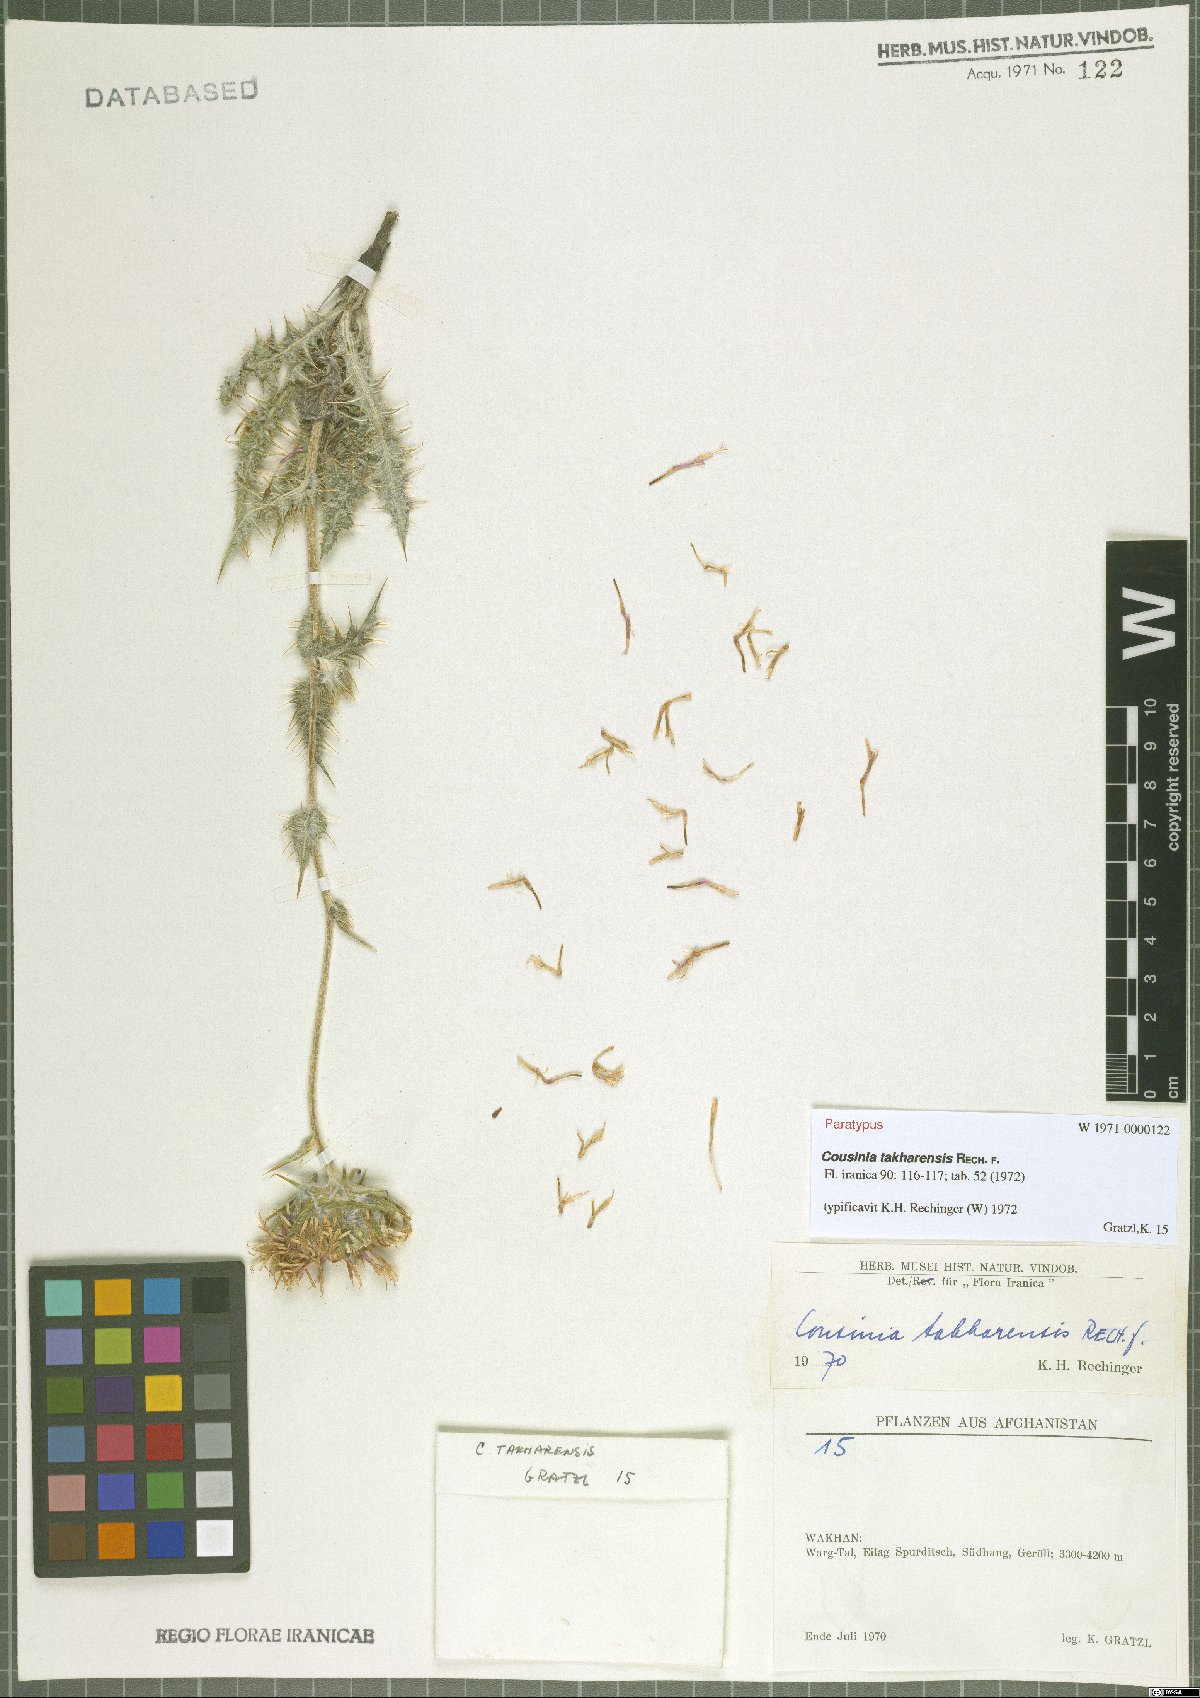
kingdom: Plantae
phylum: Tracheophyta
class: Magnoliopsida
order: Asterales
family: Asteraceae
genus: Cousinia
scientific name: Cousinia takharensis
